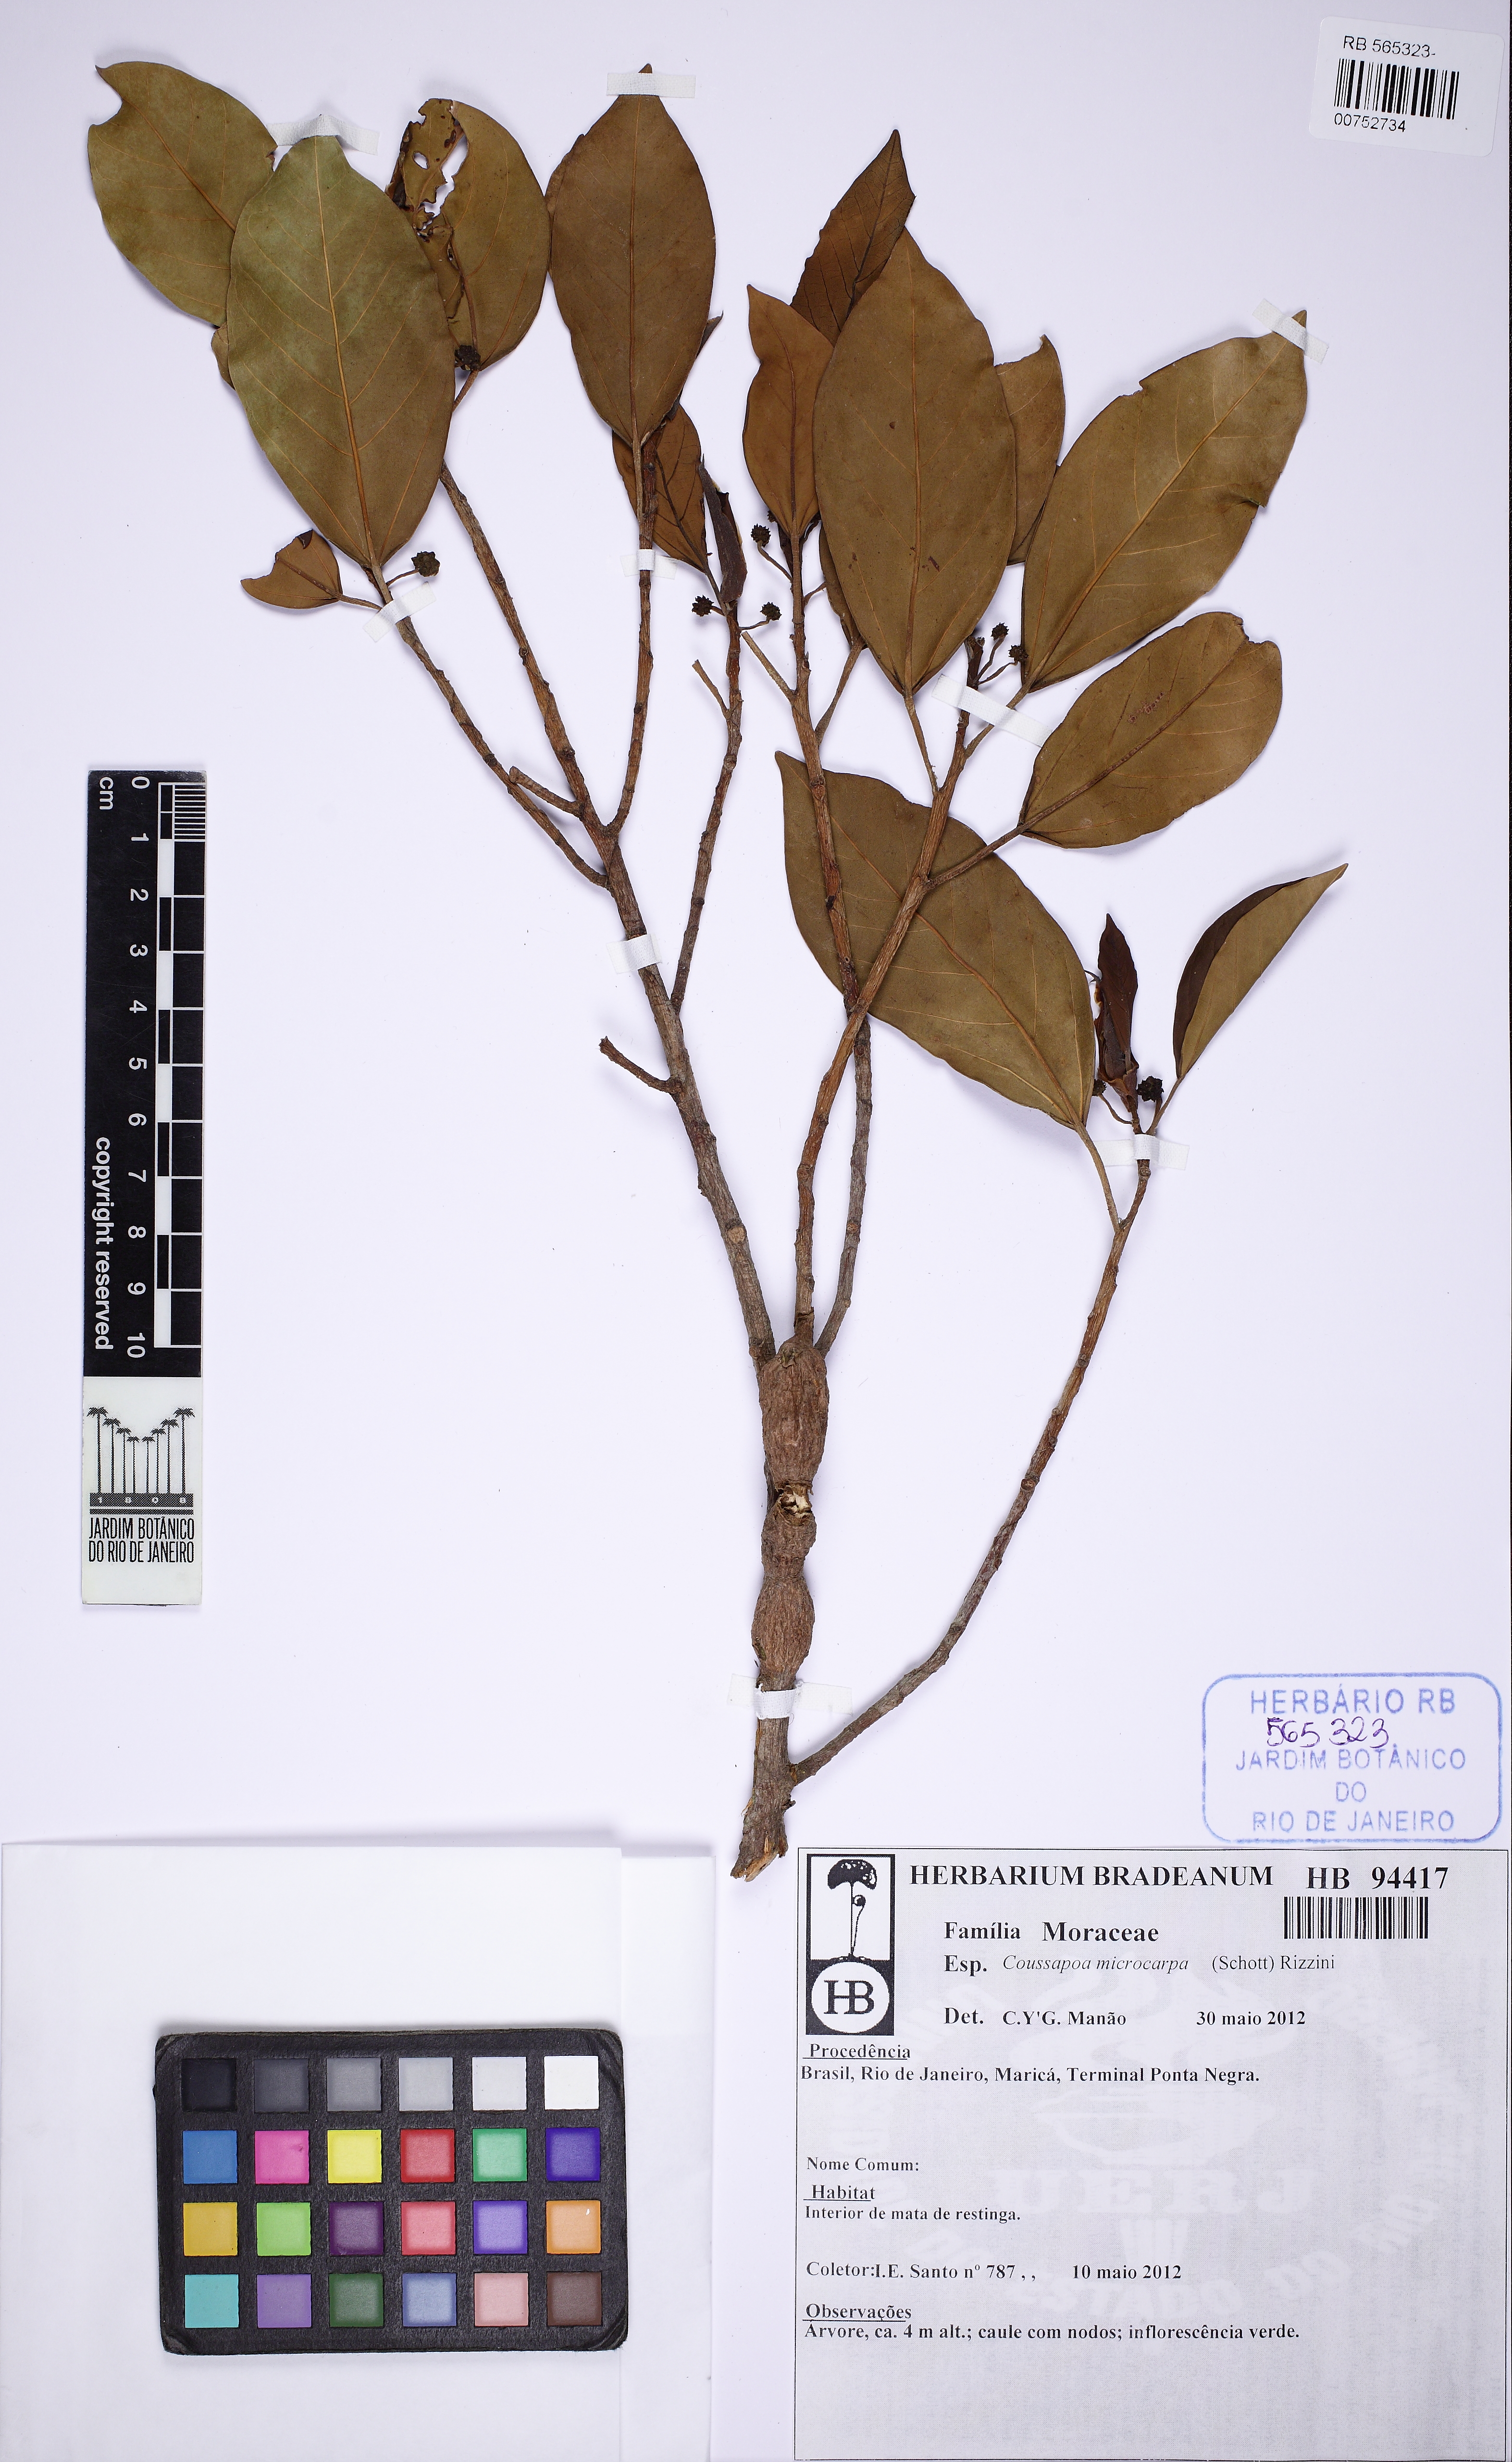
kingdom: Plantae
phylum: Tracheophyta
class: Magnoliopsida
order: Rosales
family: Urticaceae
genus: Coussapoa
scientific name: Coussapoa microcarpa
